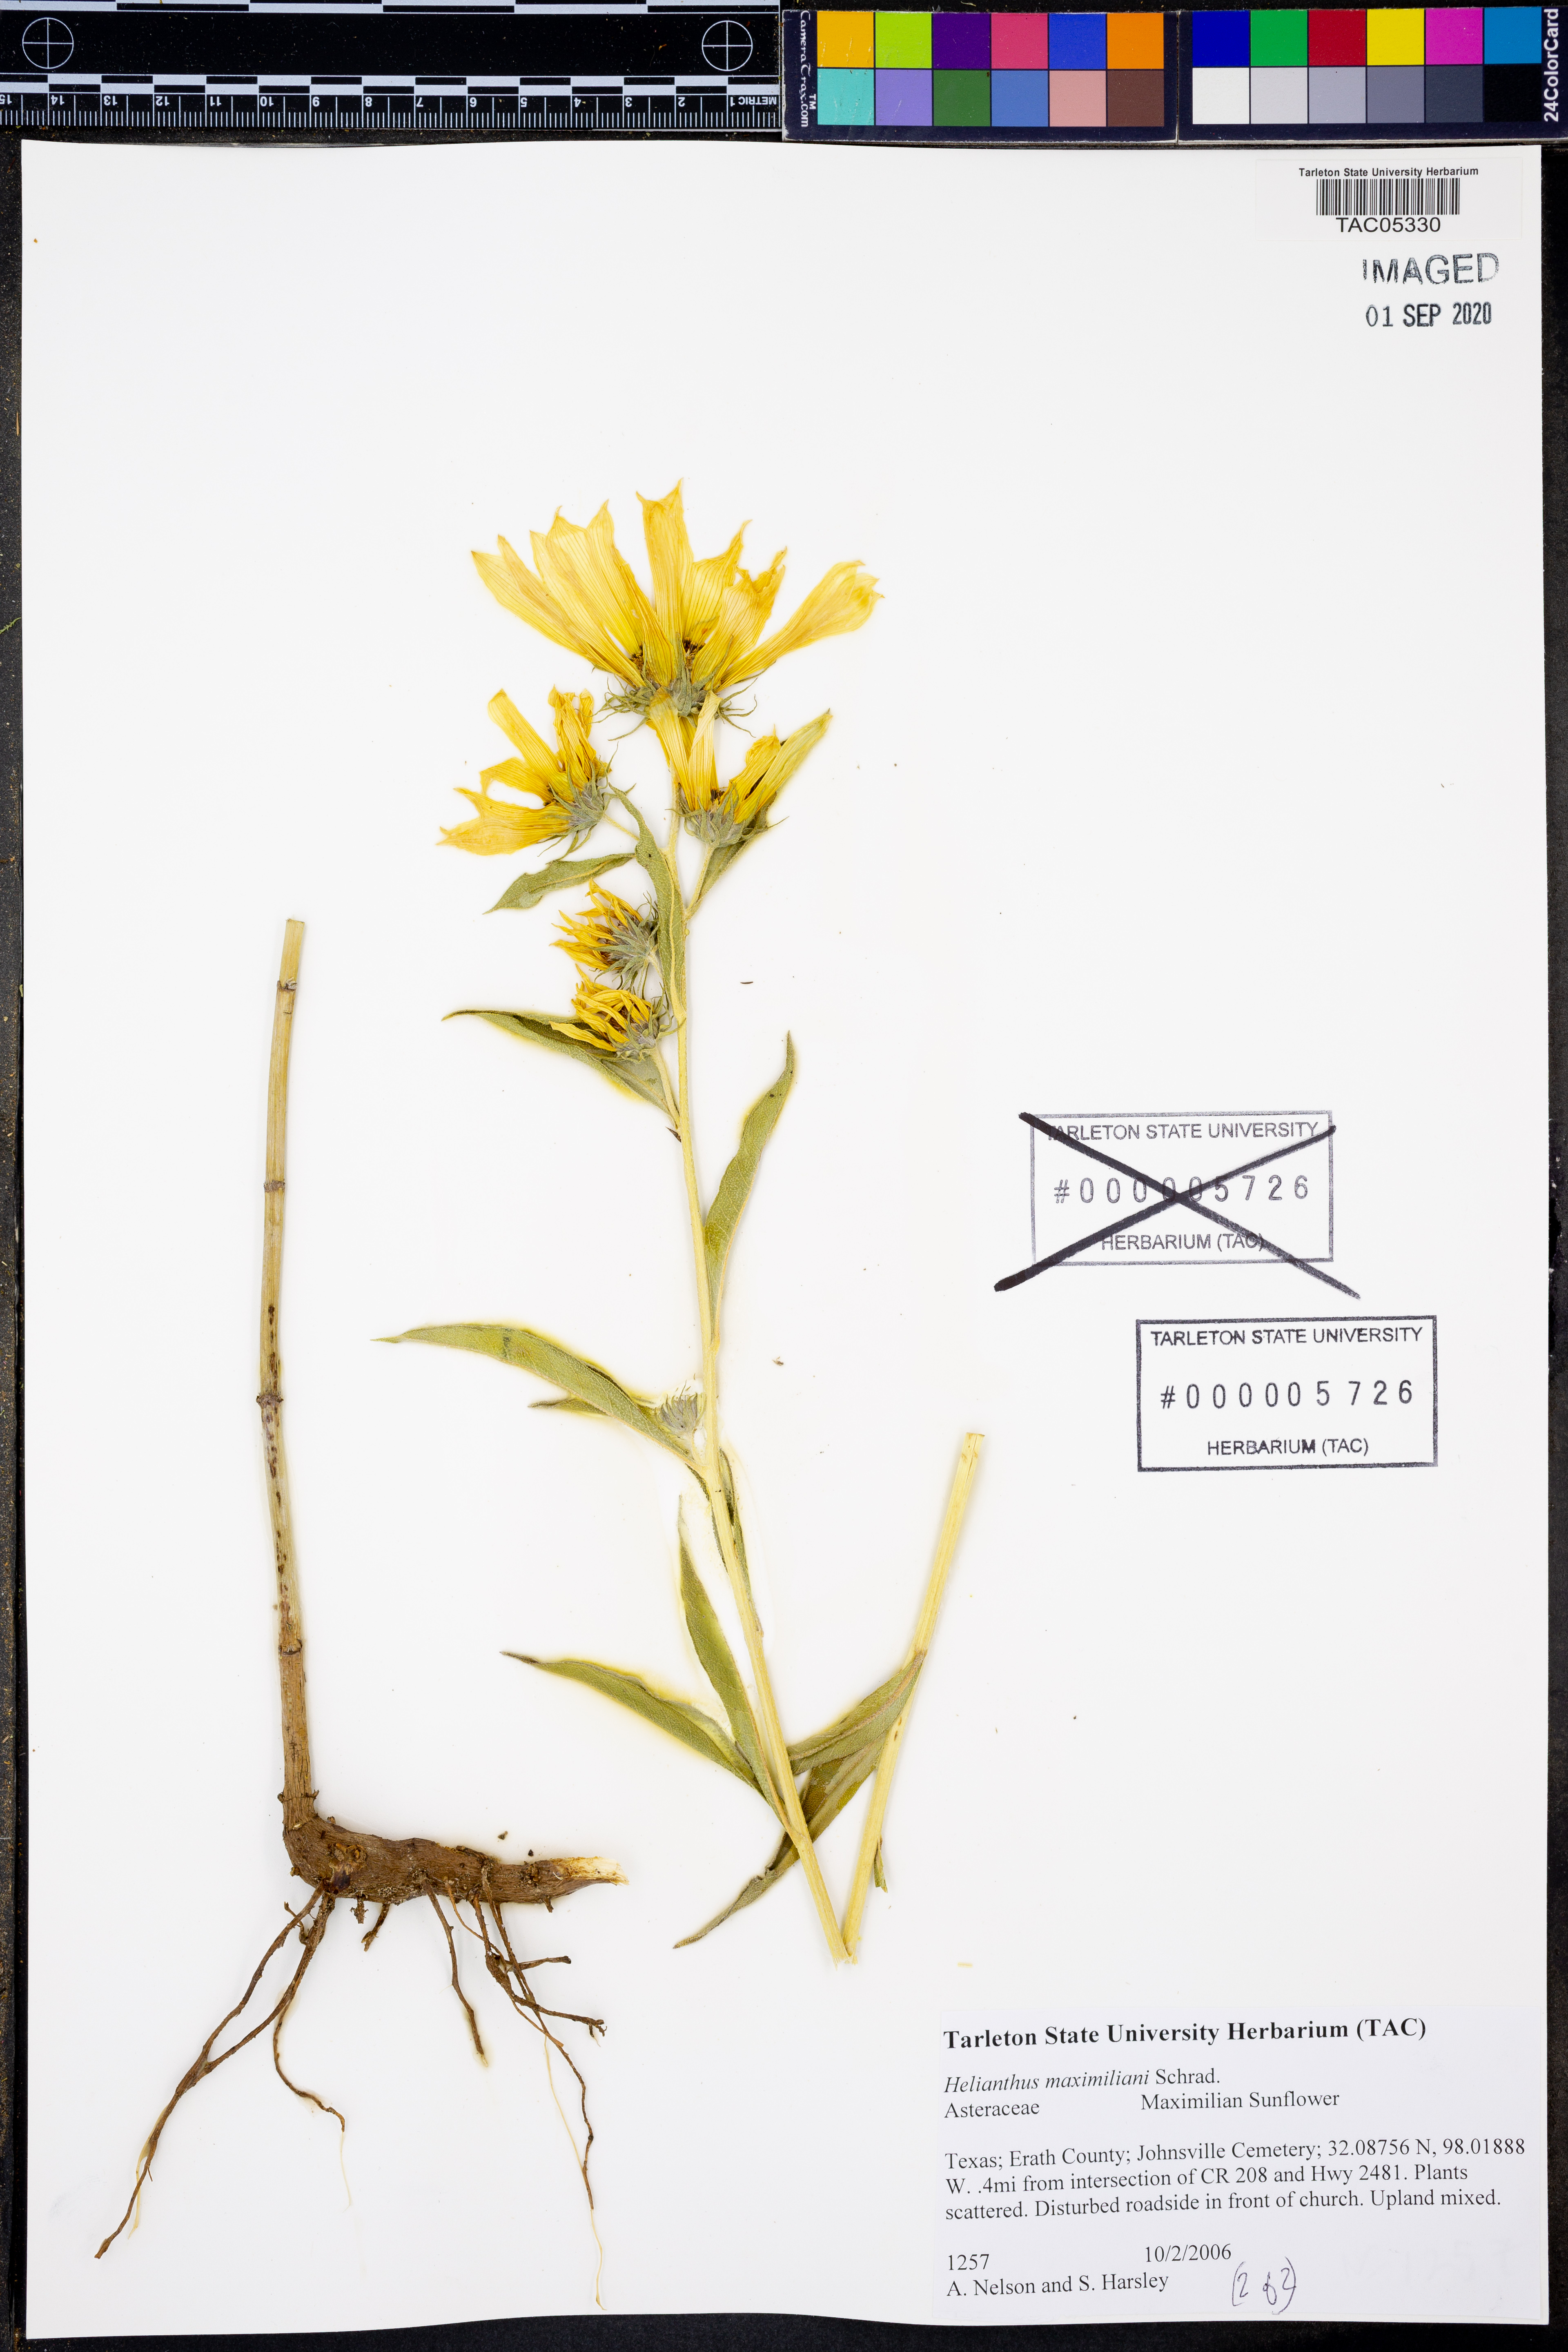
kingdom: Plantae
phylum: Tracheophyta
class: Magnoliopsida
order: Asterales
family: Asteraceae
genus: Helianthus
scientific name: Helianthus maximiliani
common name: Maximilian's sunflower
